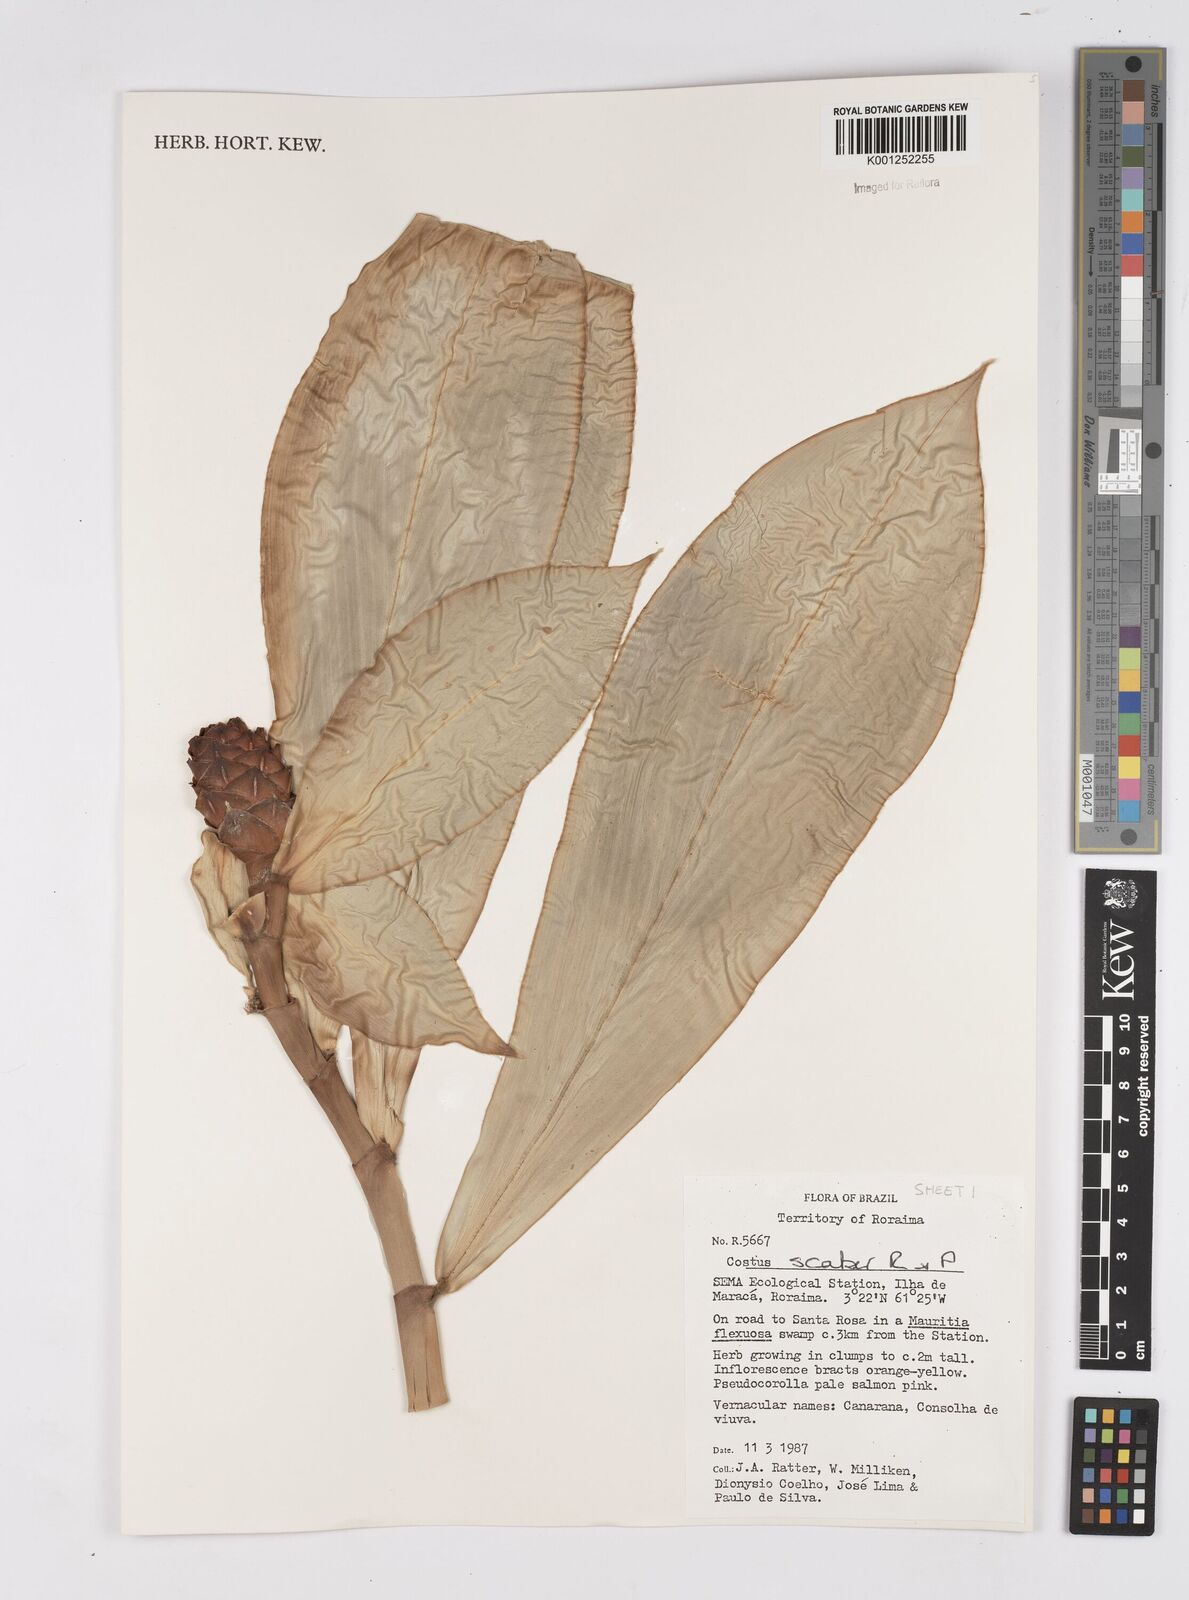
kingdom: Plantae
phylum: Tracheophyta
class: Liliopsida
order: Zingiberales
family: Costaceae
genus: Costus
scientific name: Costus scaber
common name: Spiral head ginger
